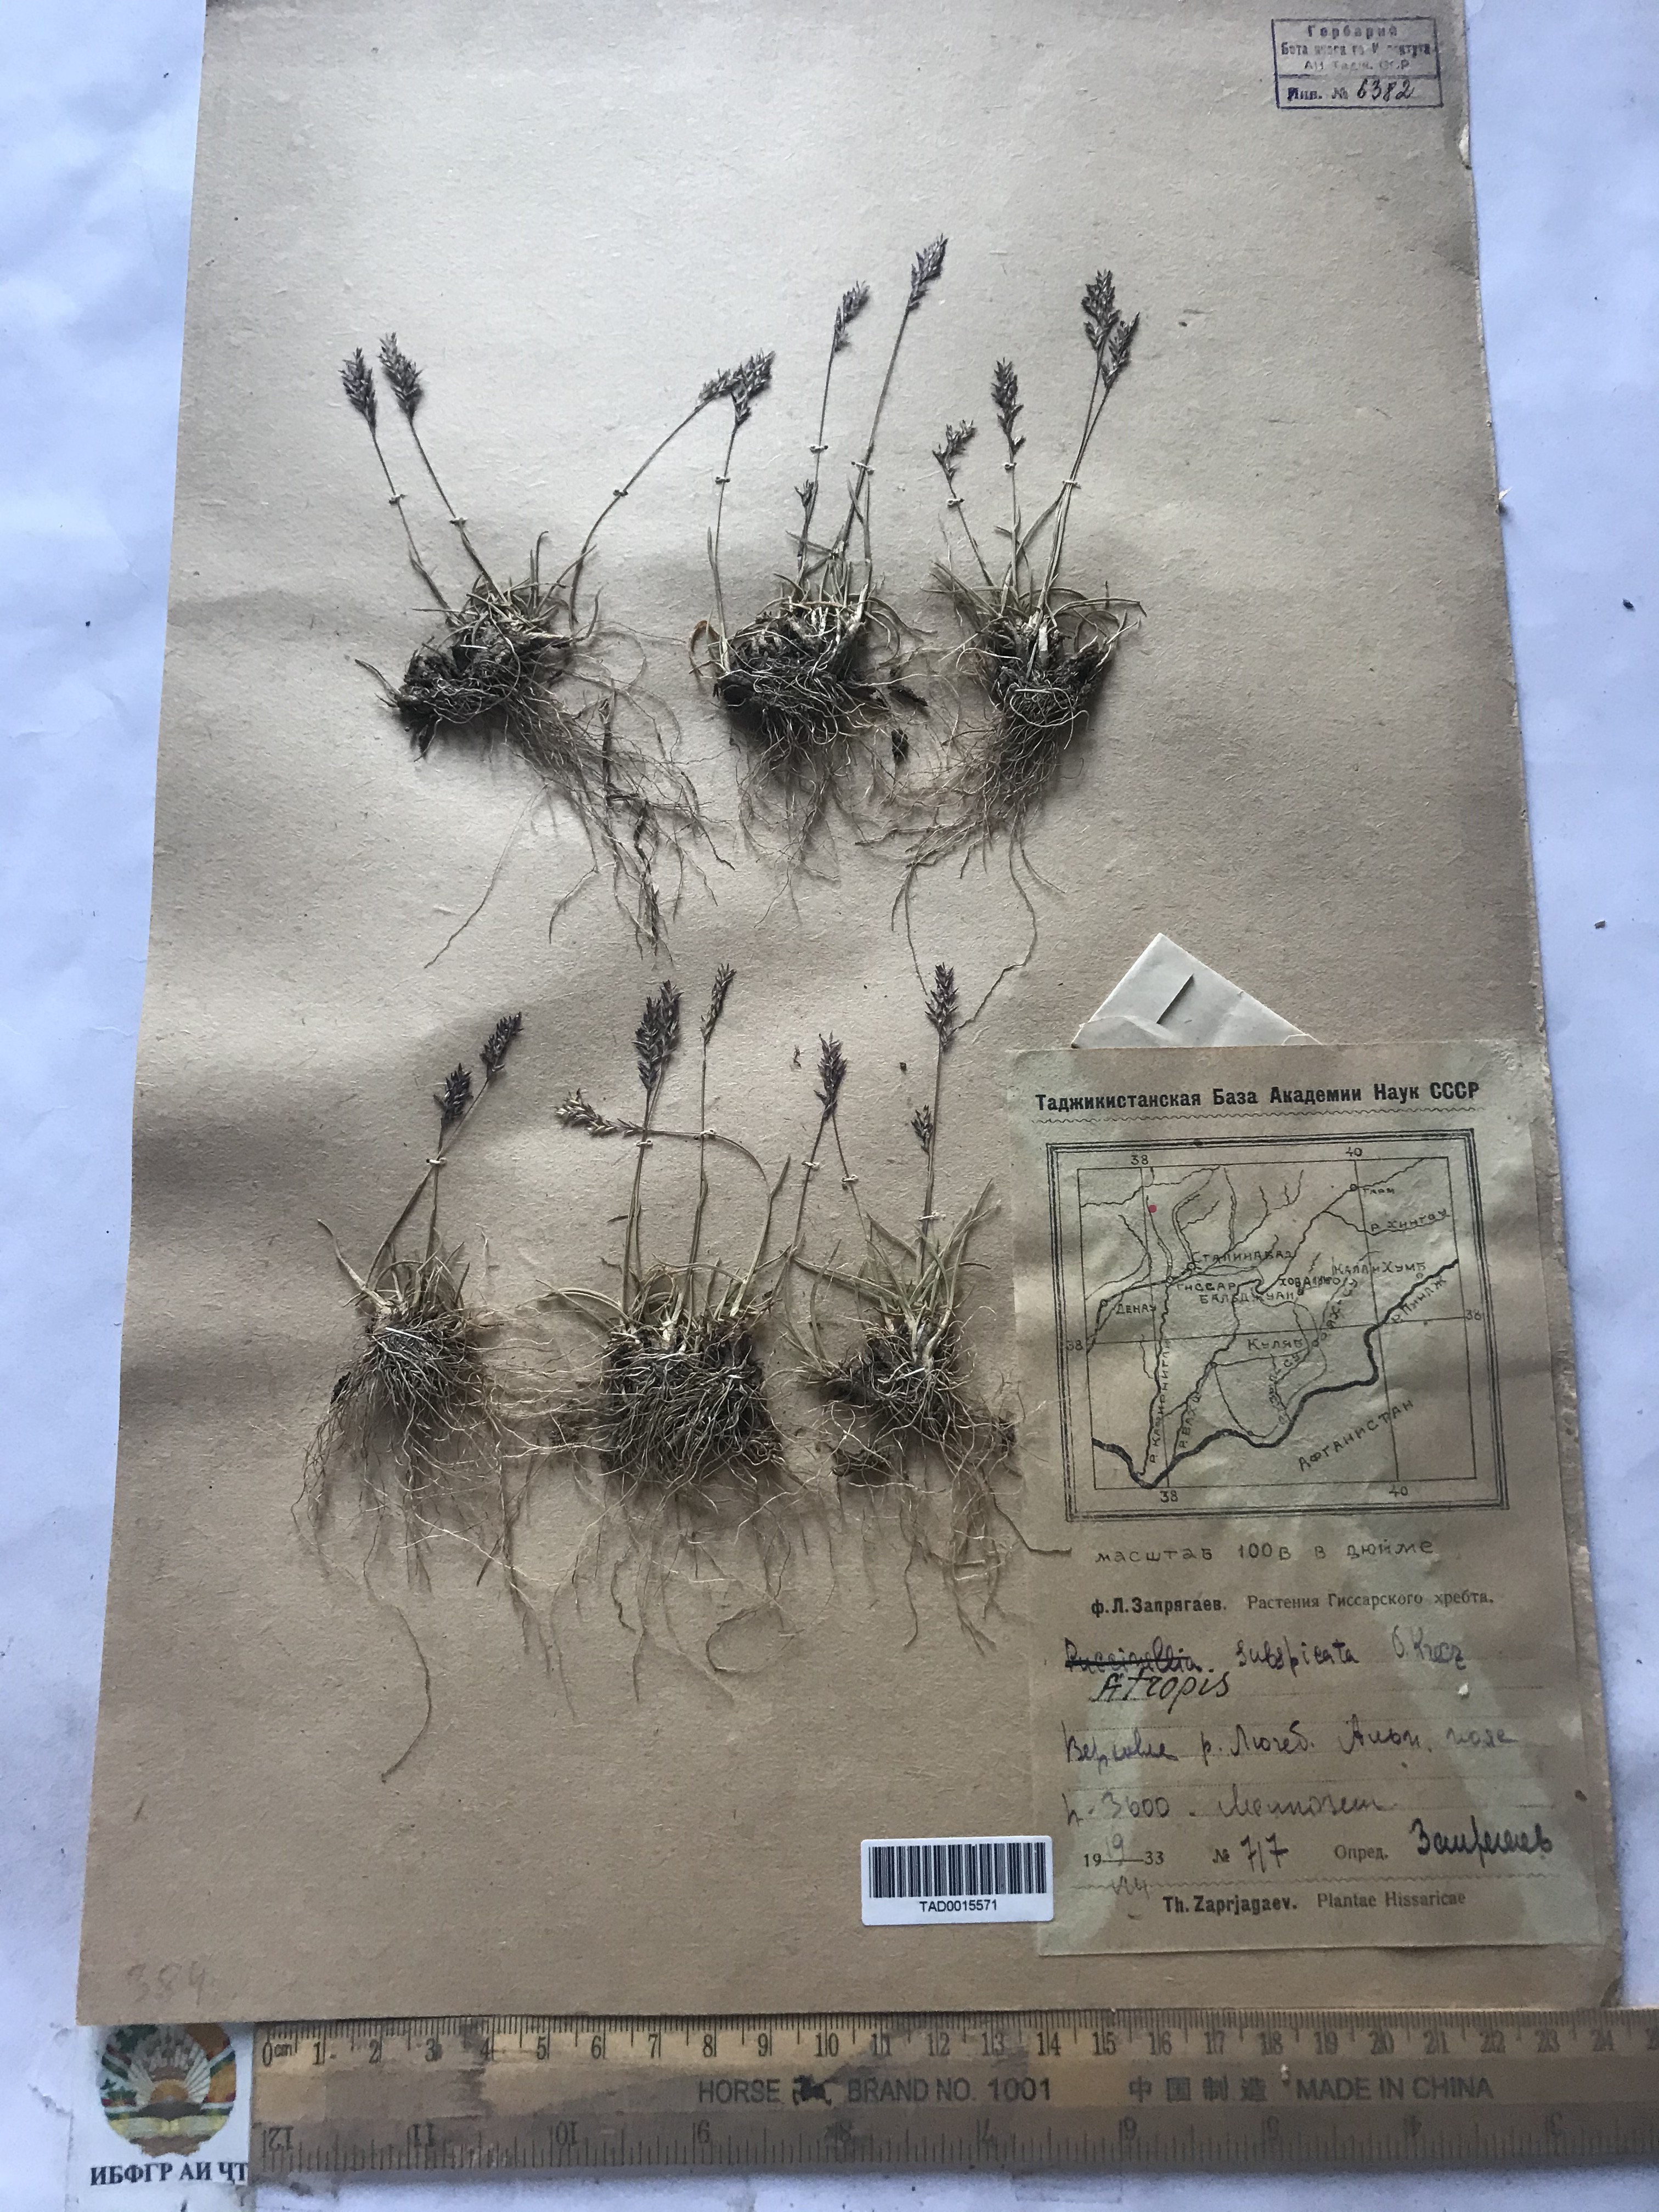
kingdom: Plantae
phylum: Tracheophyta
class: Liliopsida
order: Poales
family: Poaceae
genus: Puccinellia
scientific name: Puccinellia subspicata
